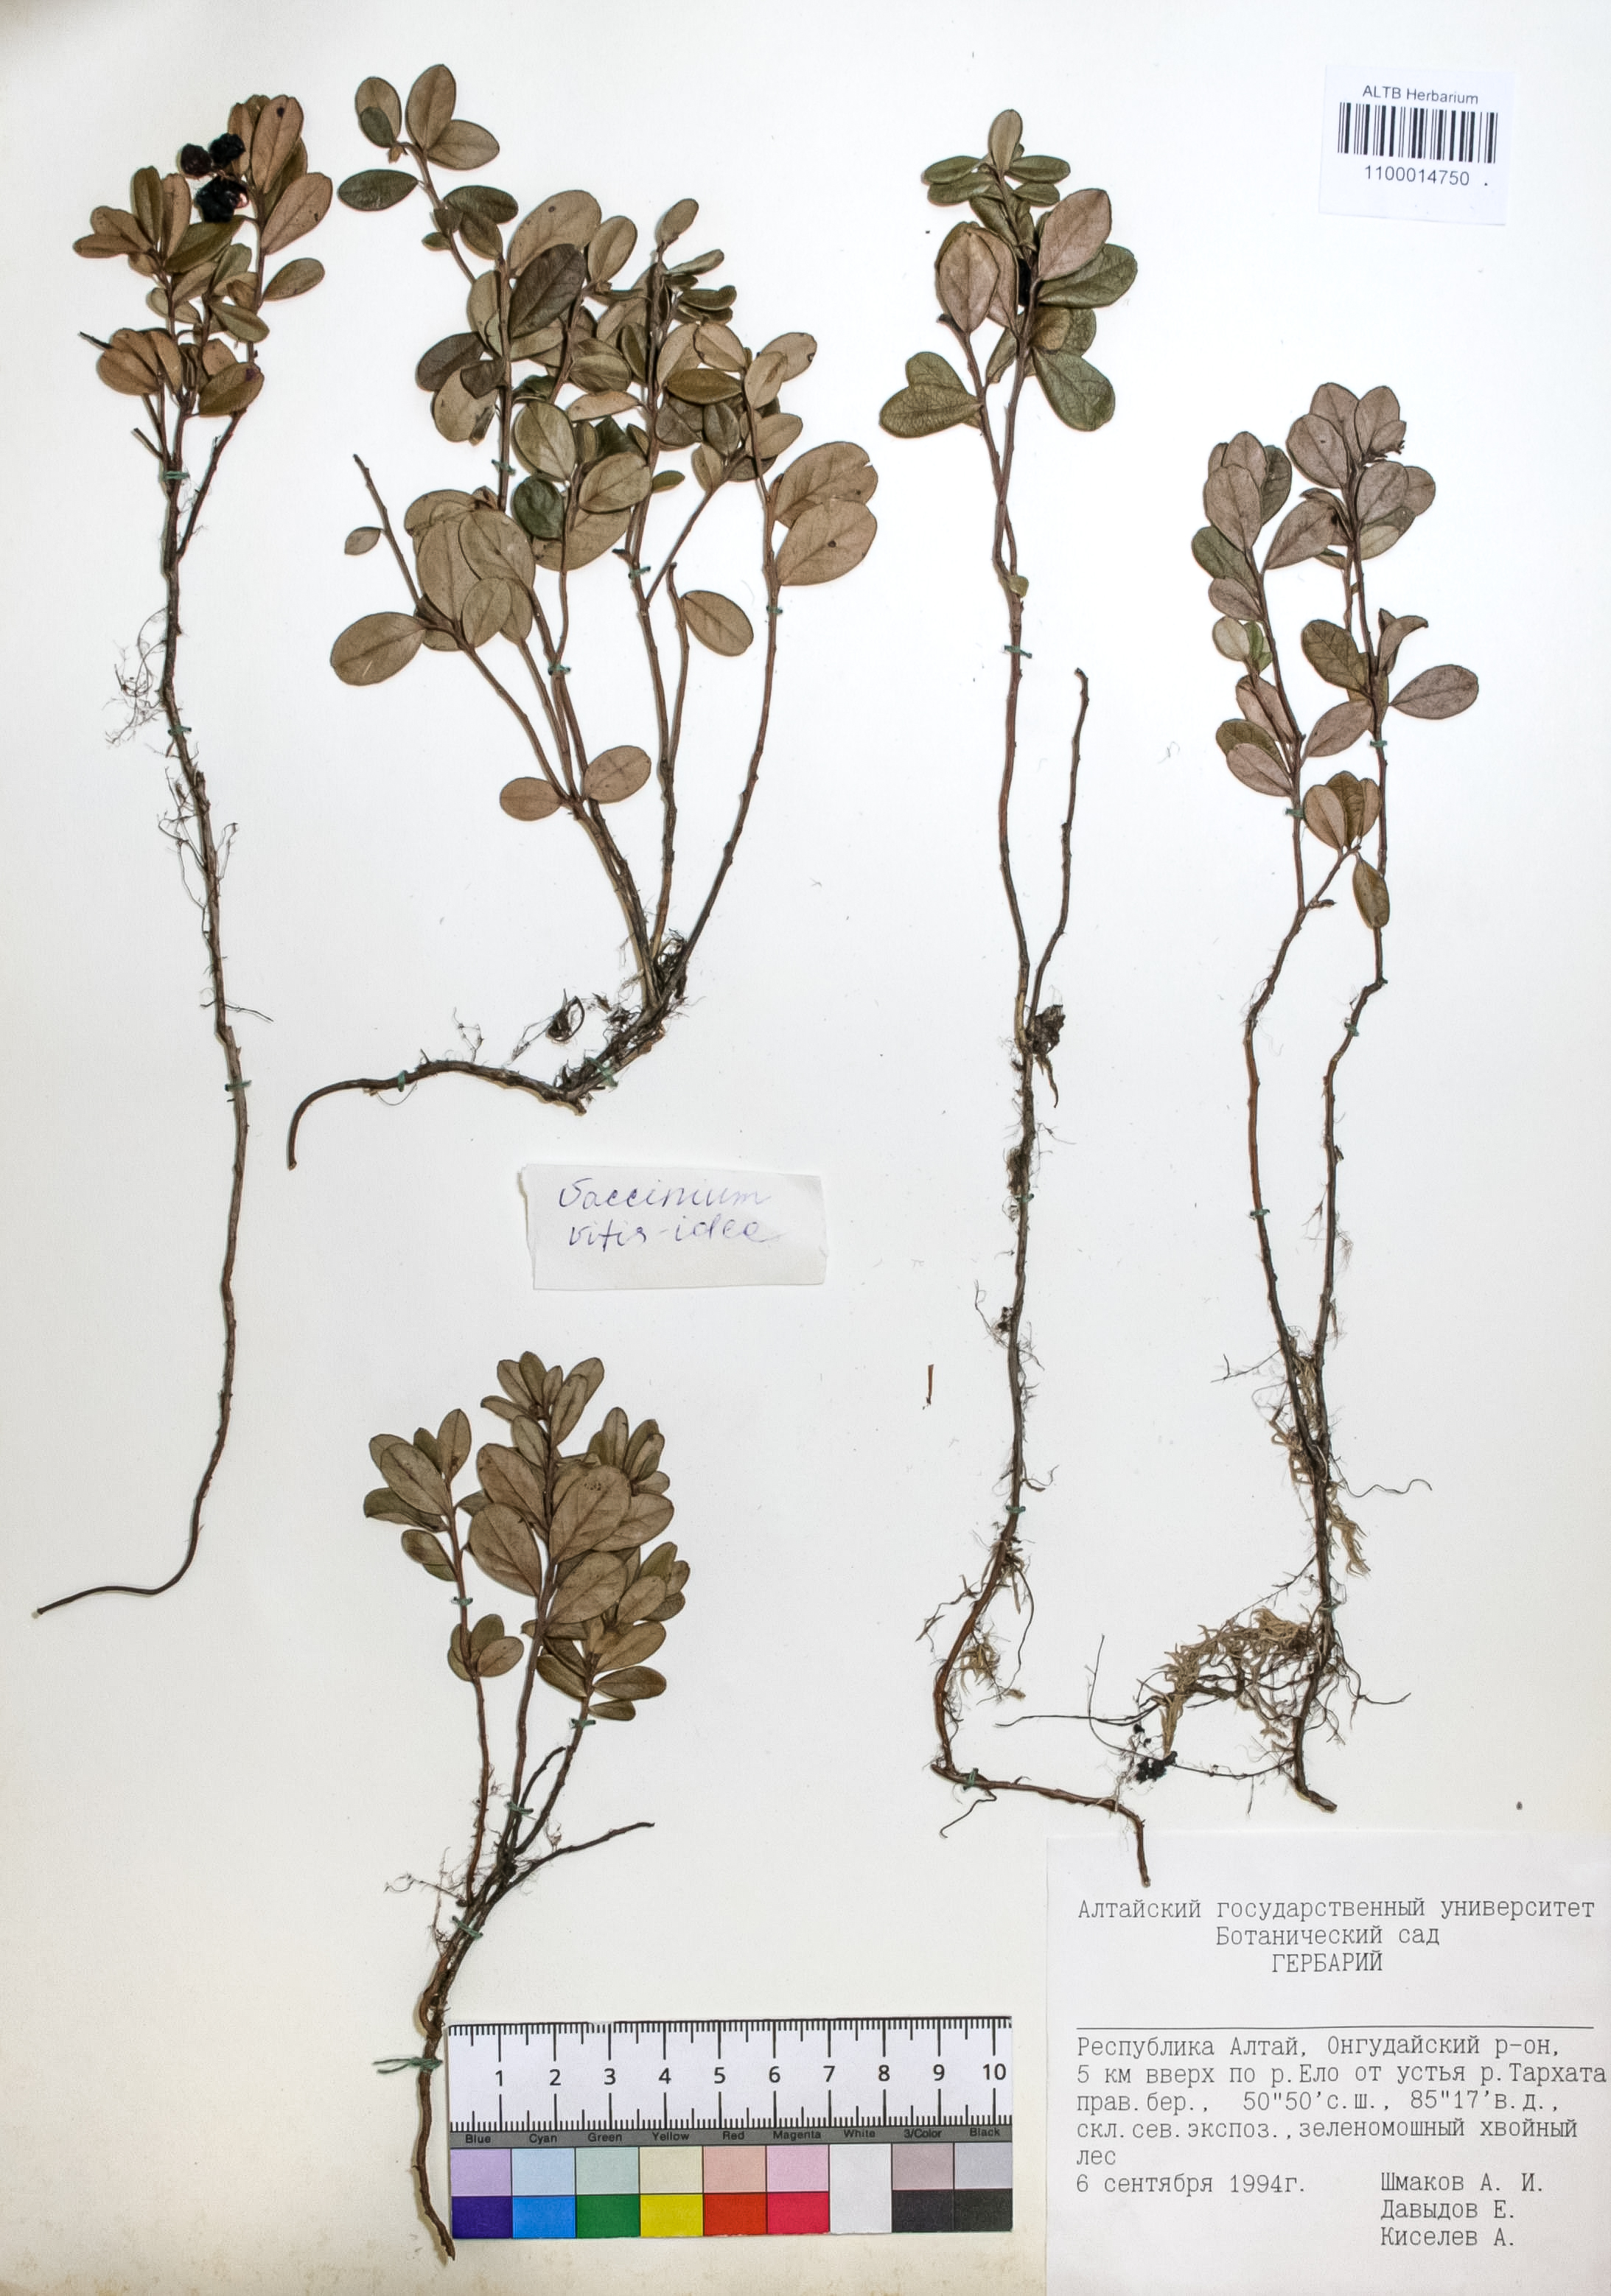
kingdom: Plantae
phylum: Tracheophyta
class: Magnoliopsida
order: Ericales
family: Ericaceae
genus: Vaccinium
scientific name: Vaccinium vitis-idaea
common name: Cowberry
